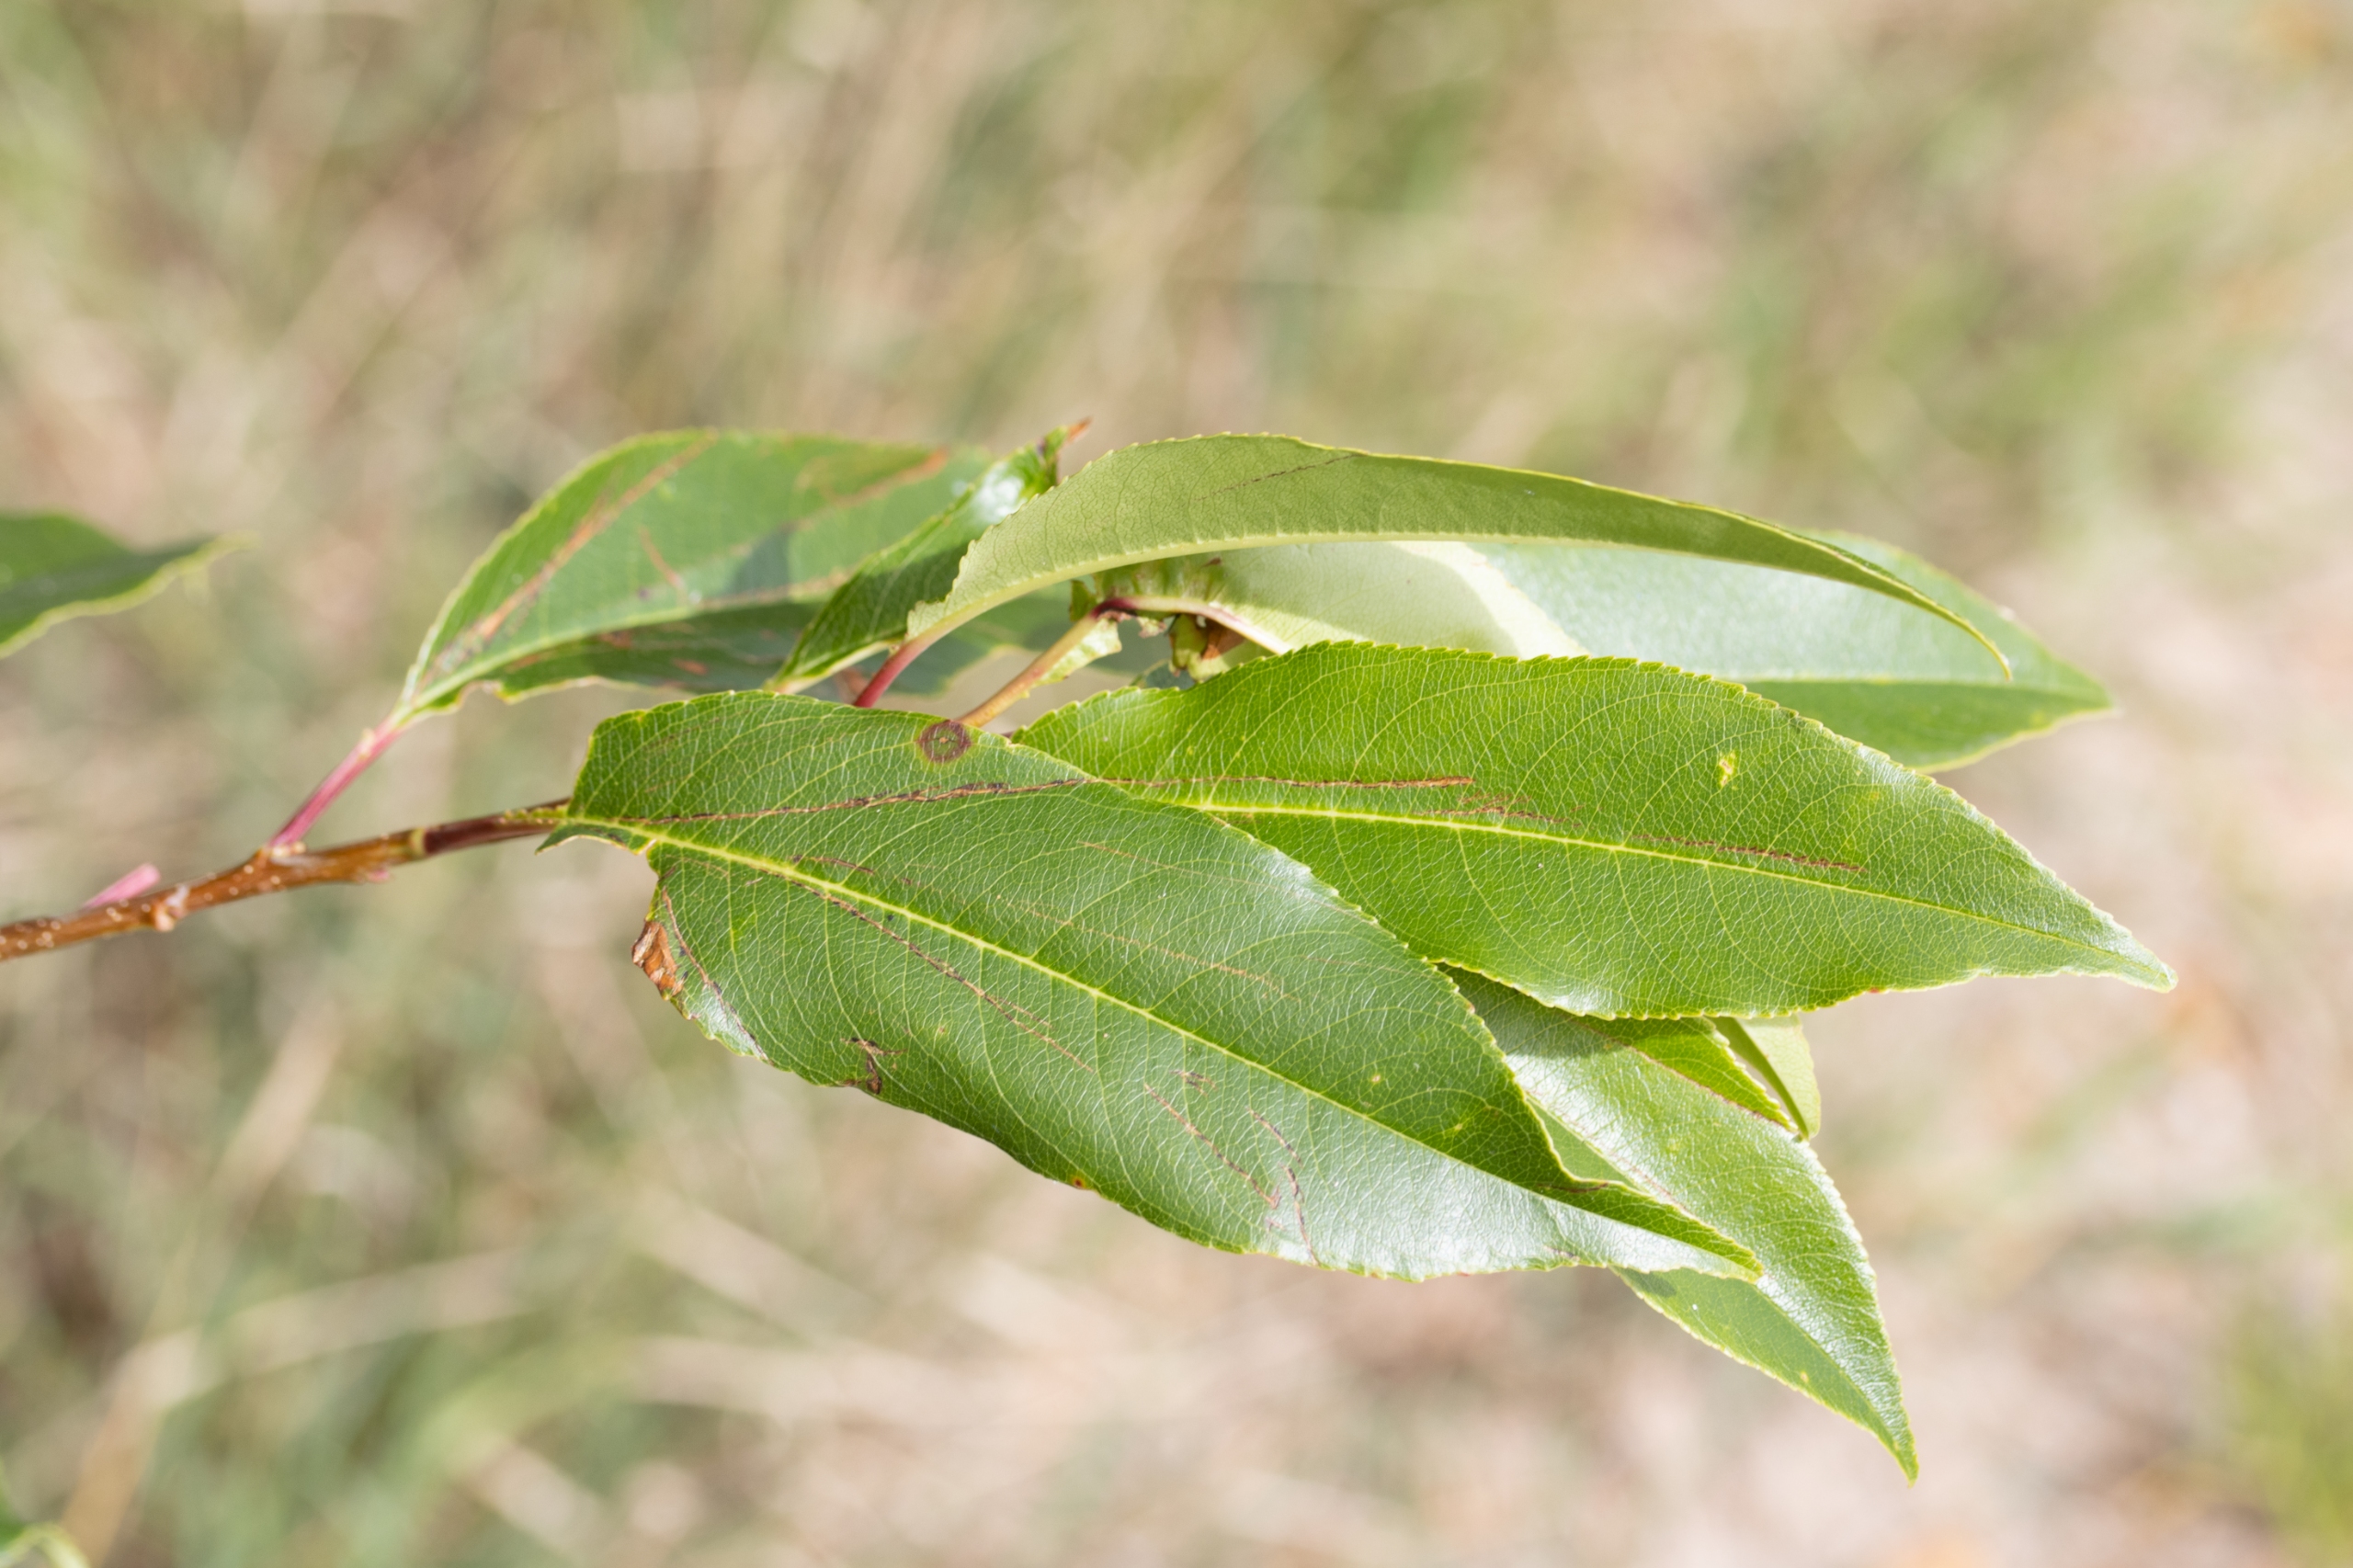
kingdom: Plantae
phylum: Tracheophyta
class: Magnoliopsida
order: Rosales
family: Rosaceae
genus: Prunus
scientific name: Prunus serotina
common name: Glansbladet hæg
